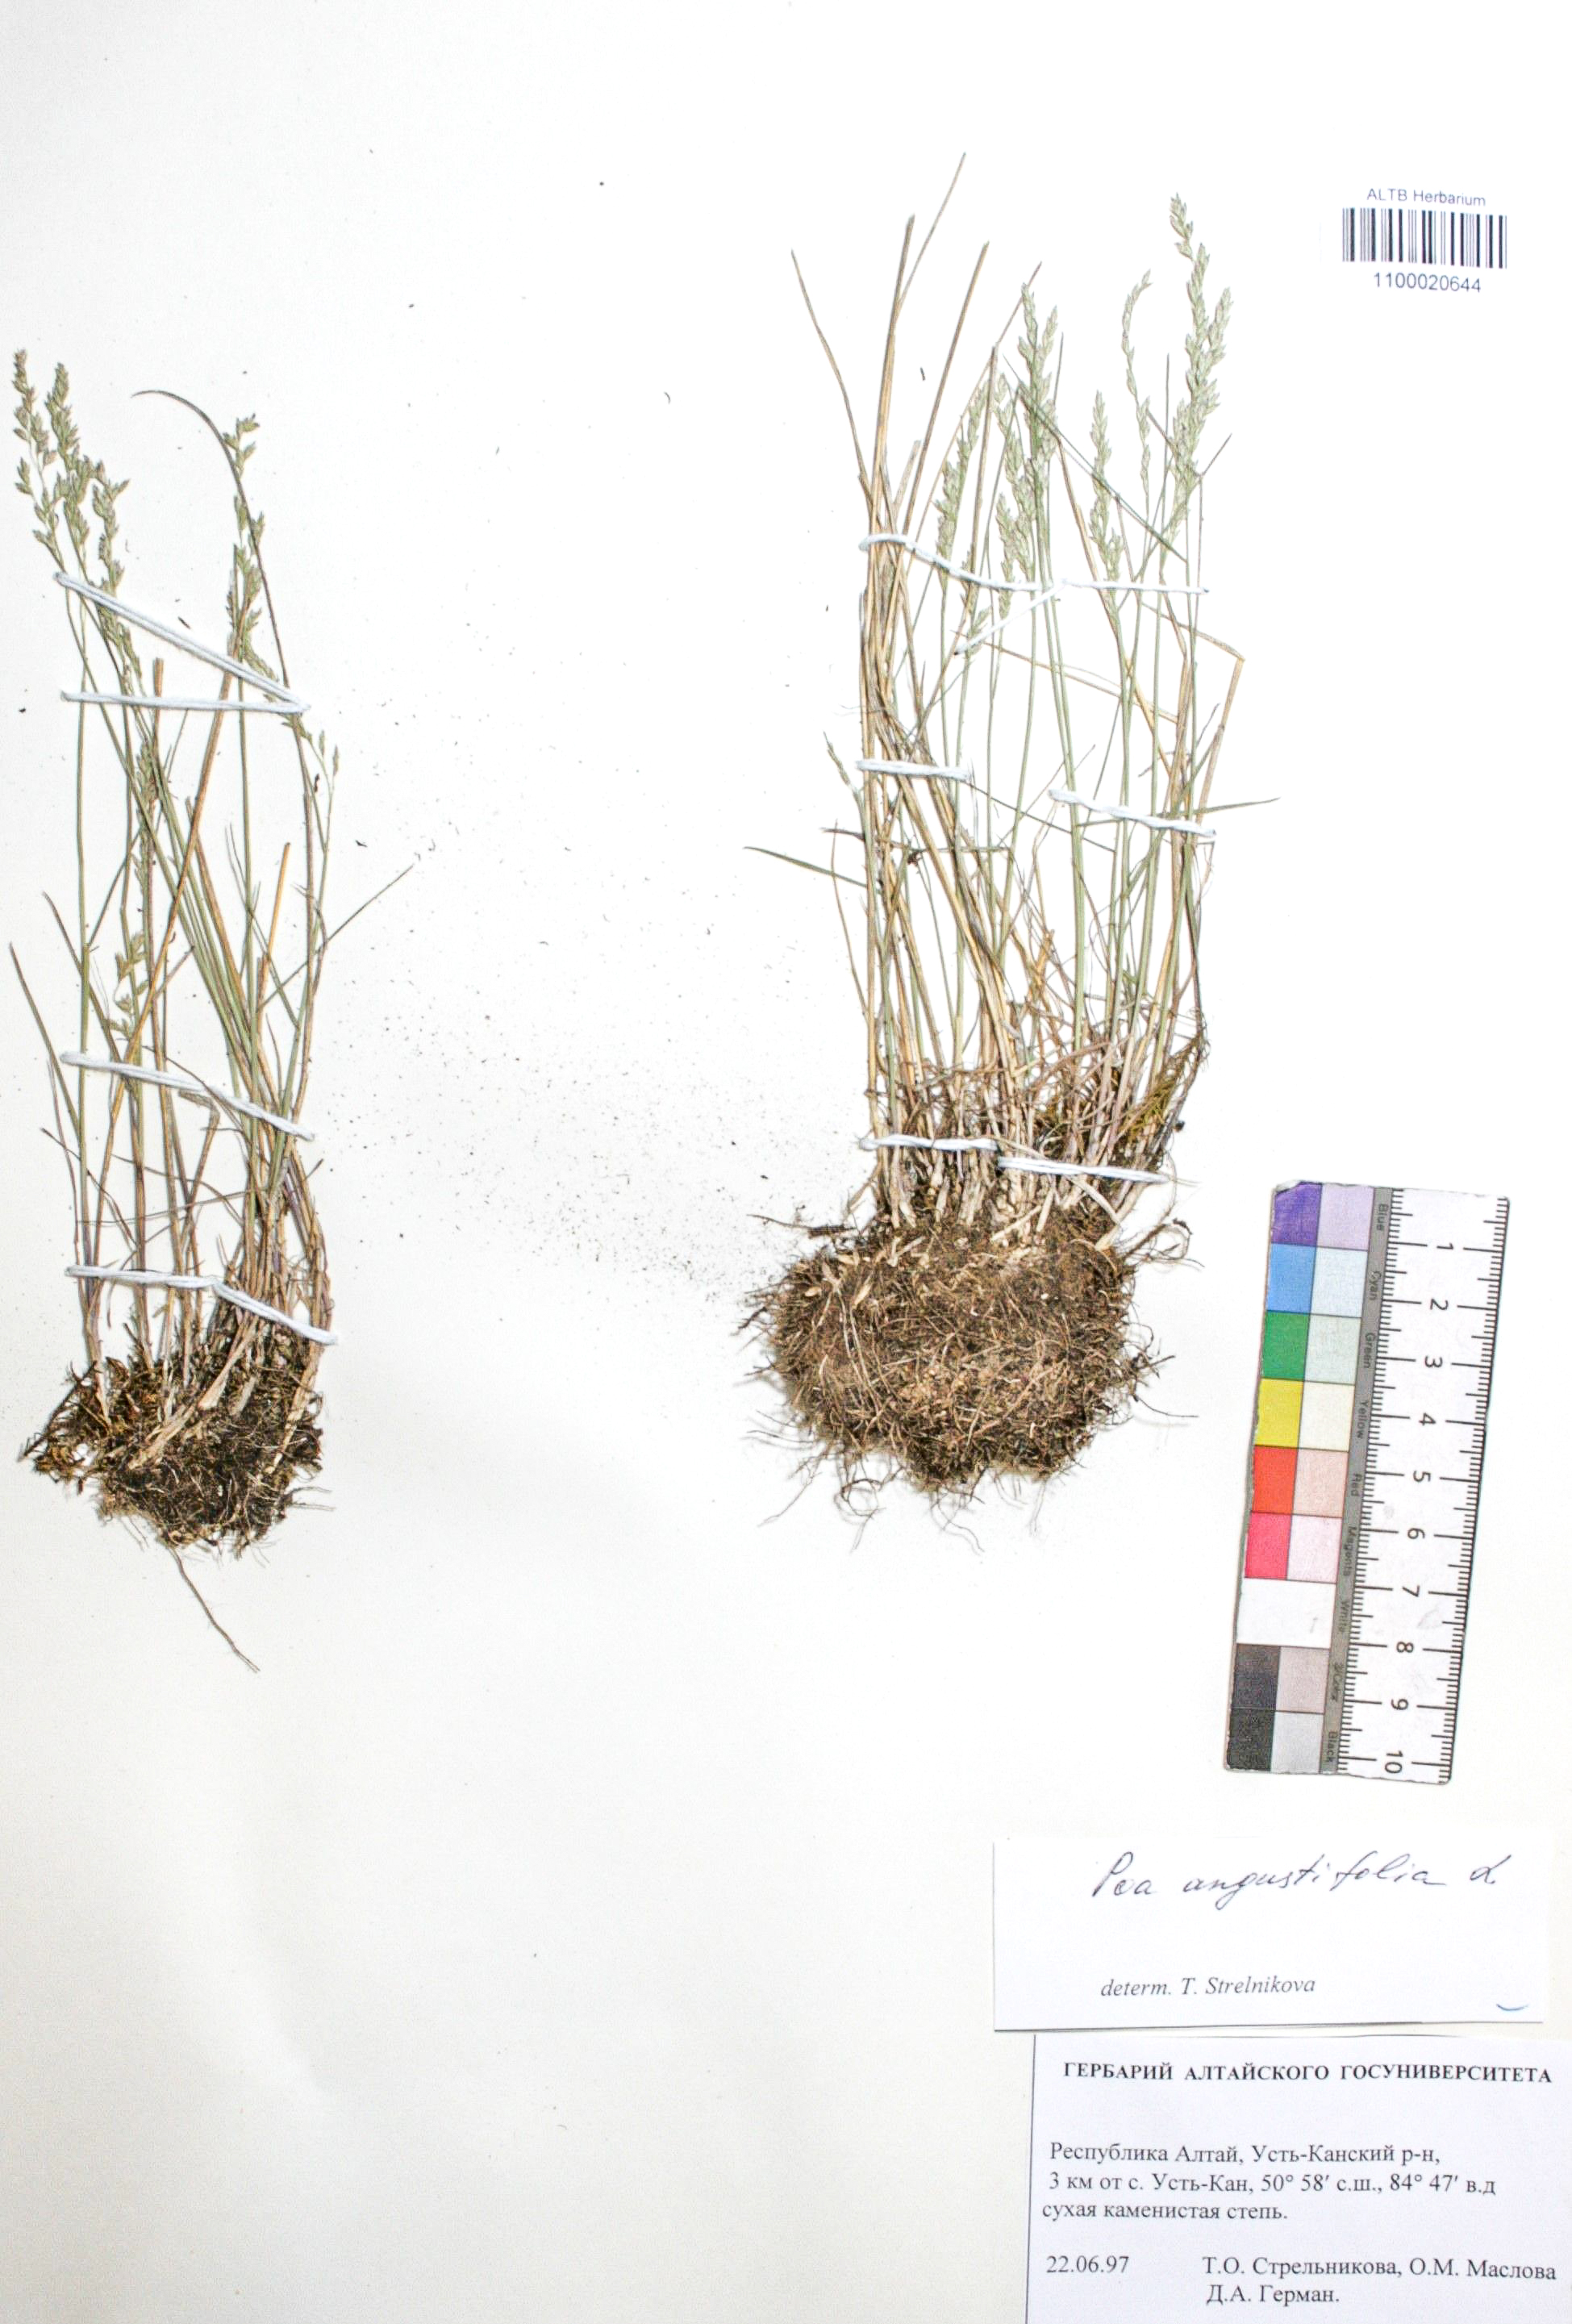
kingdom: Plantae
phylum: Tracheophyta
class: Liliopsida
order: Poales
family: Poaceae
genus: Poa
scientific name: Poa angustifolia
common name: Narrow-leaved meadow-grass
